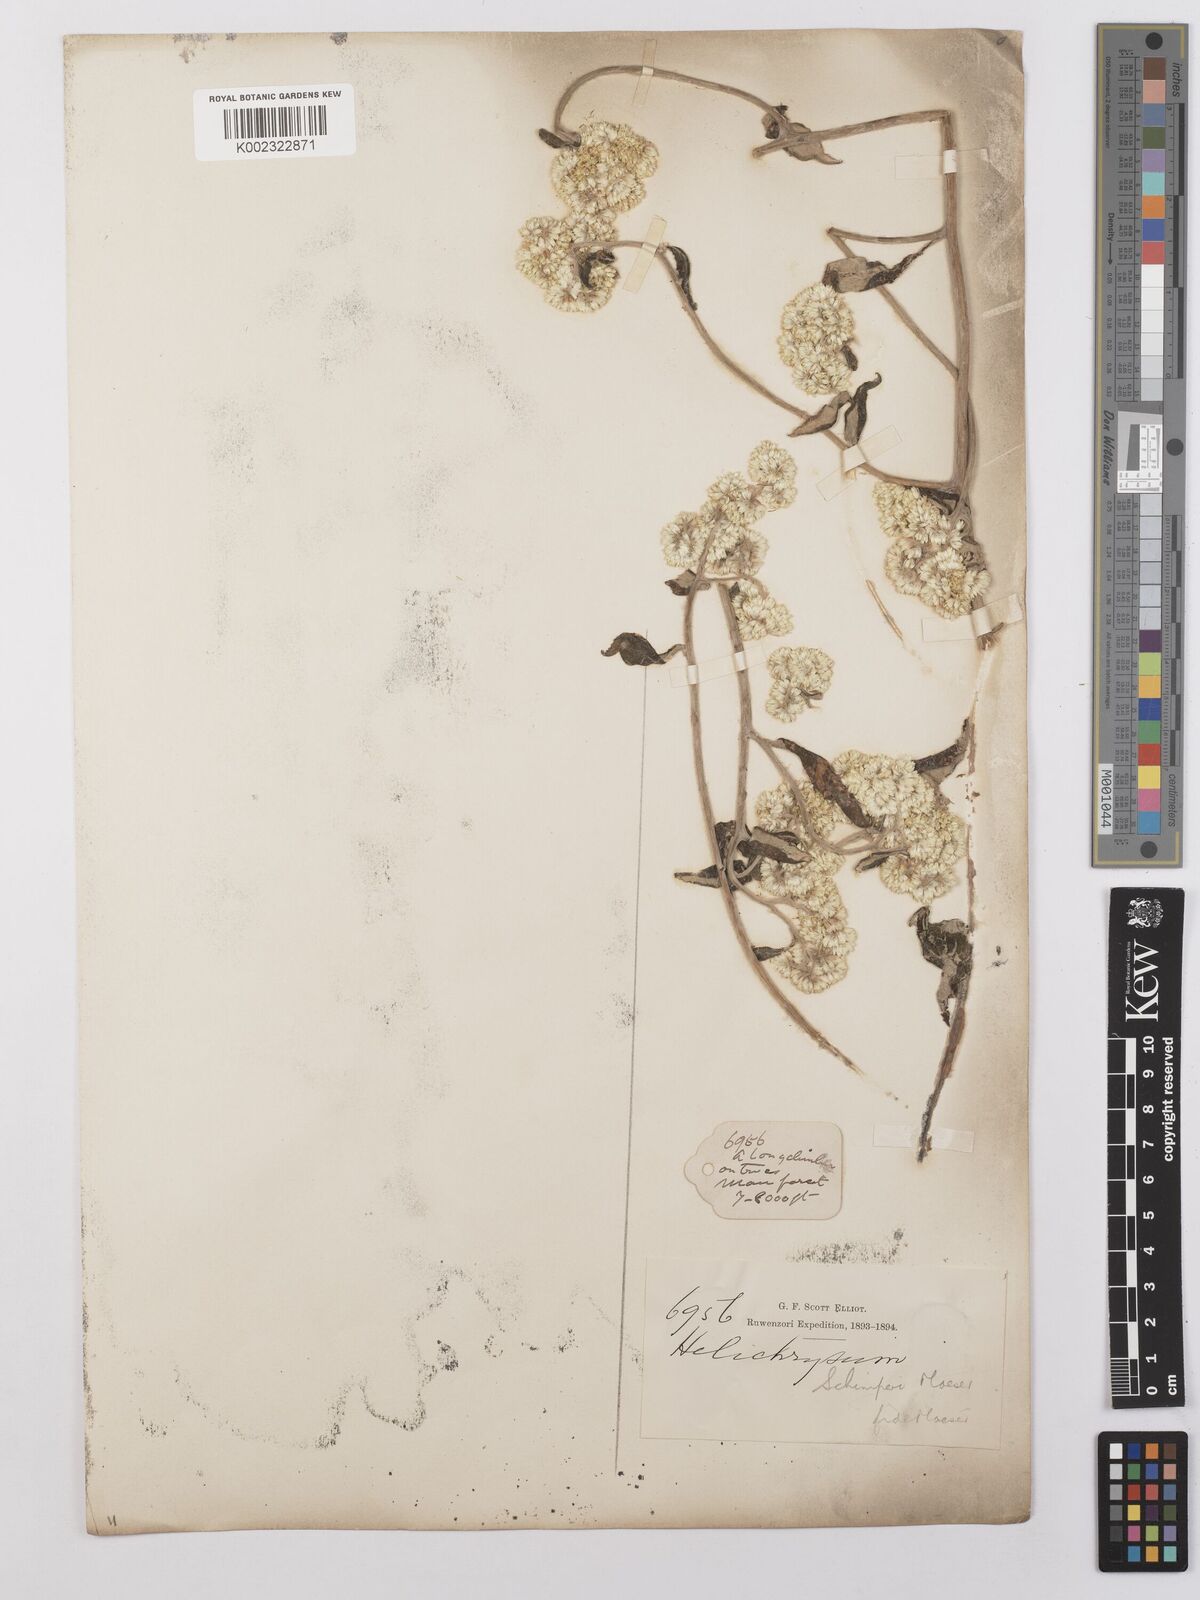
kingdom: Plantae
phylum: Tracheophyta
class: Magnoliopsida
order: Asterales
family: Asteraceae
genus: Helichrysum
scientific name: Helichrysum schimperi
